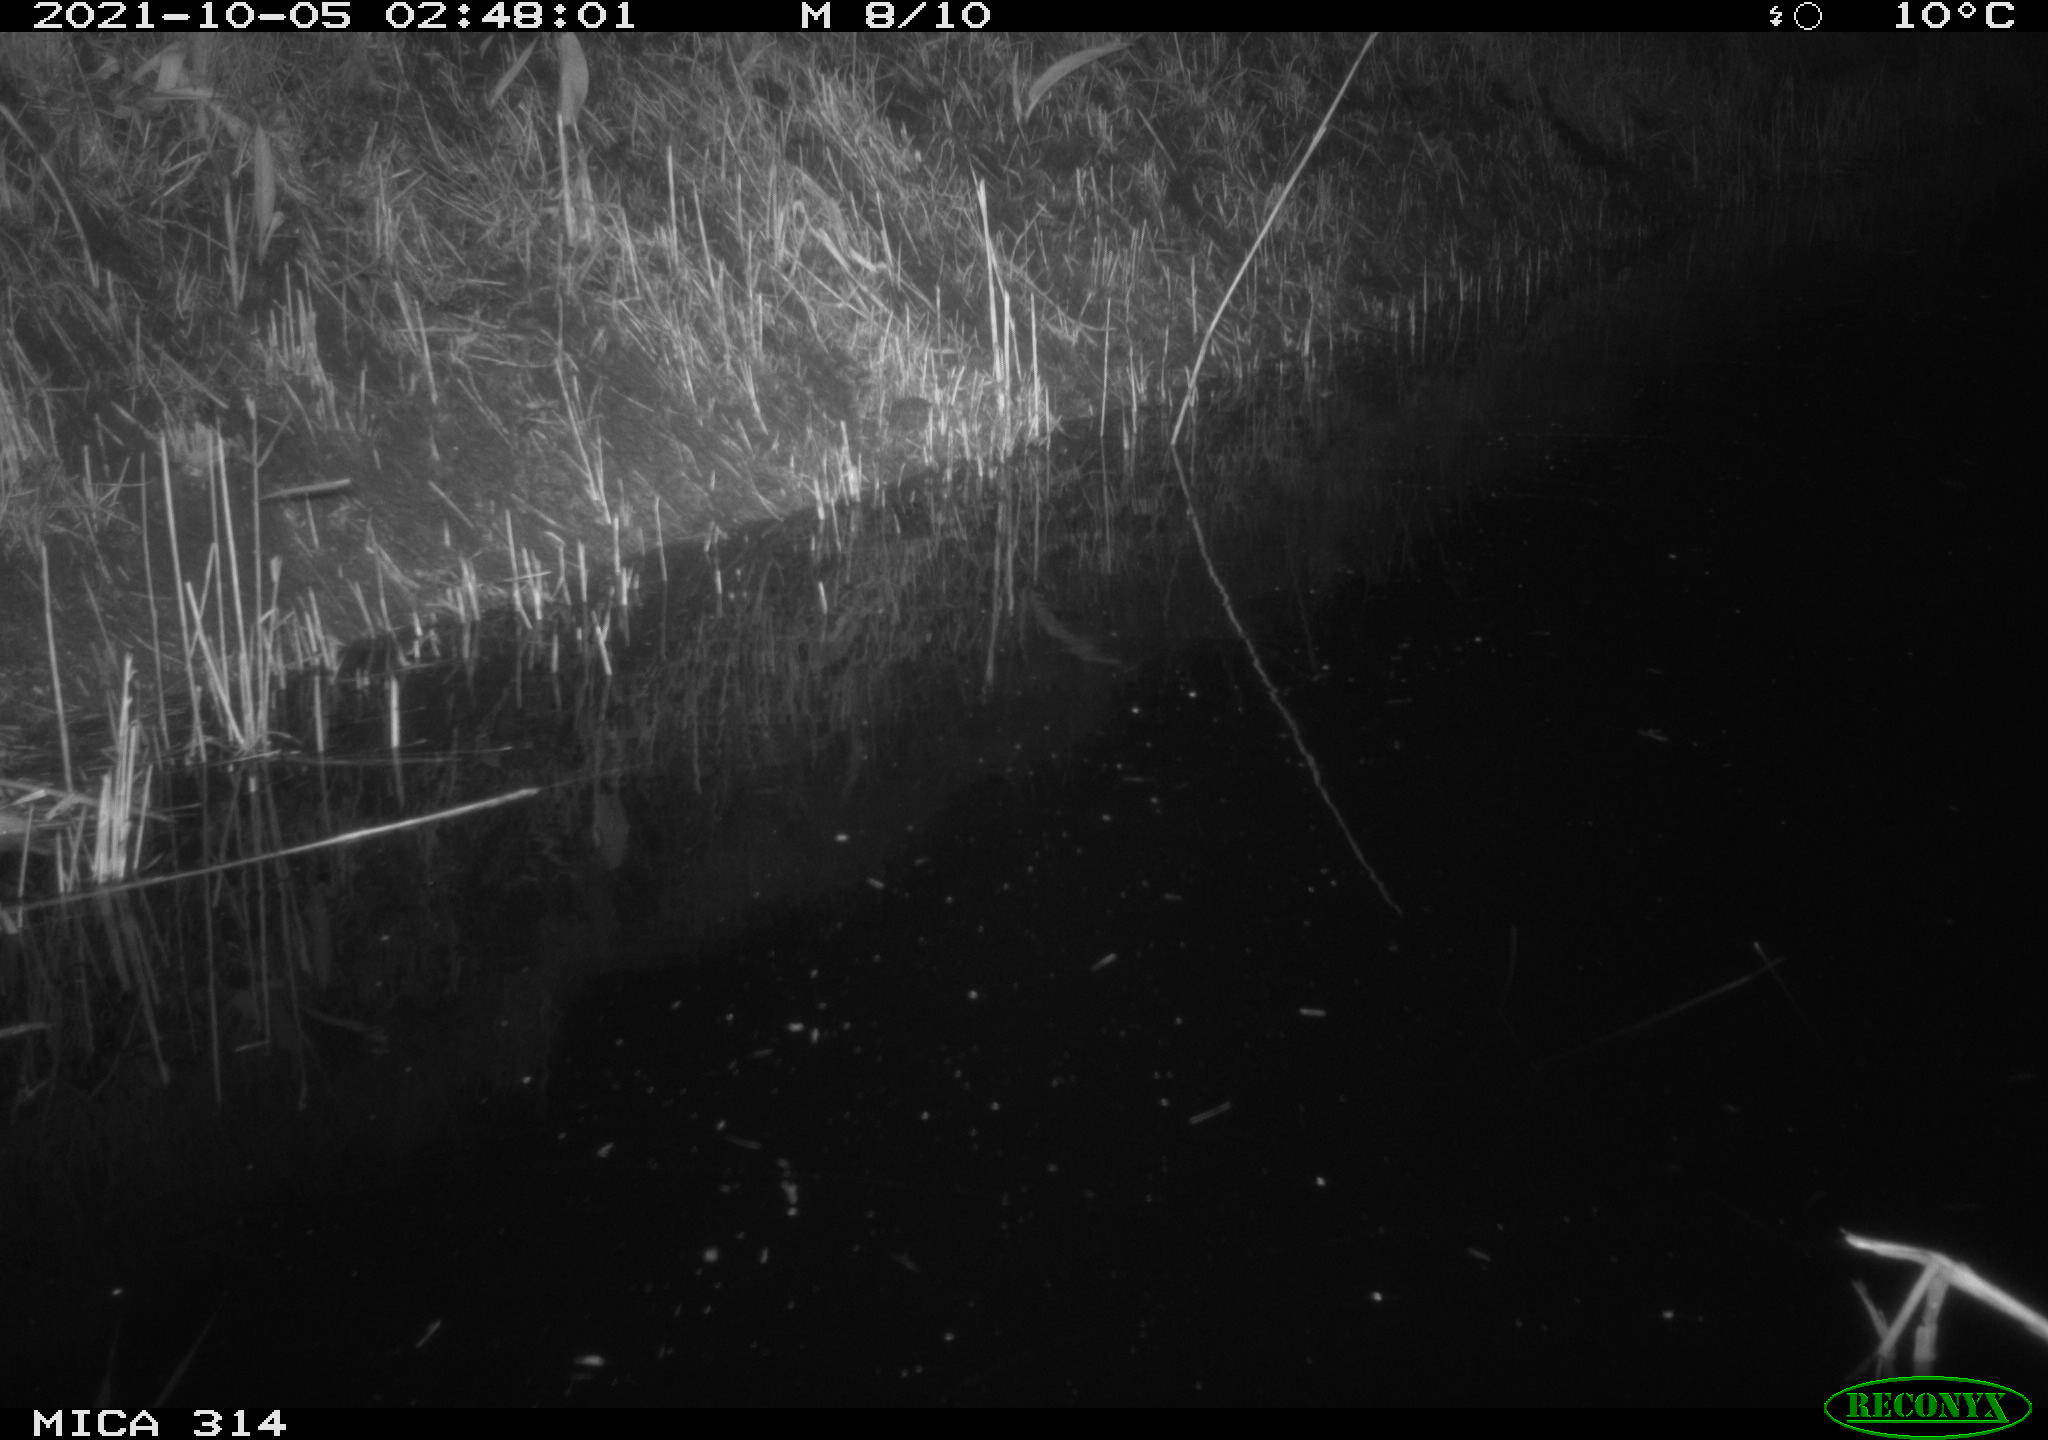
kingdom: Animalia
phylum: Chordata
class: Mammalia
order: Rodentia
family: Muridae
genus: Rattus
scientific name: Rattus norvegicus
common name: Brown rat
